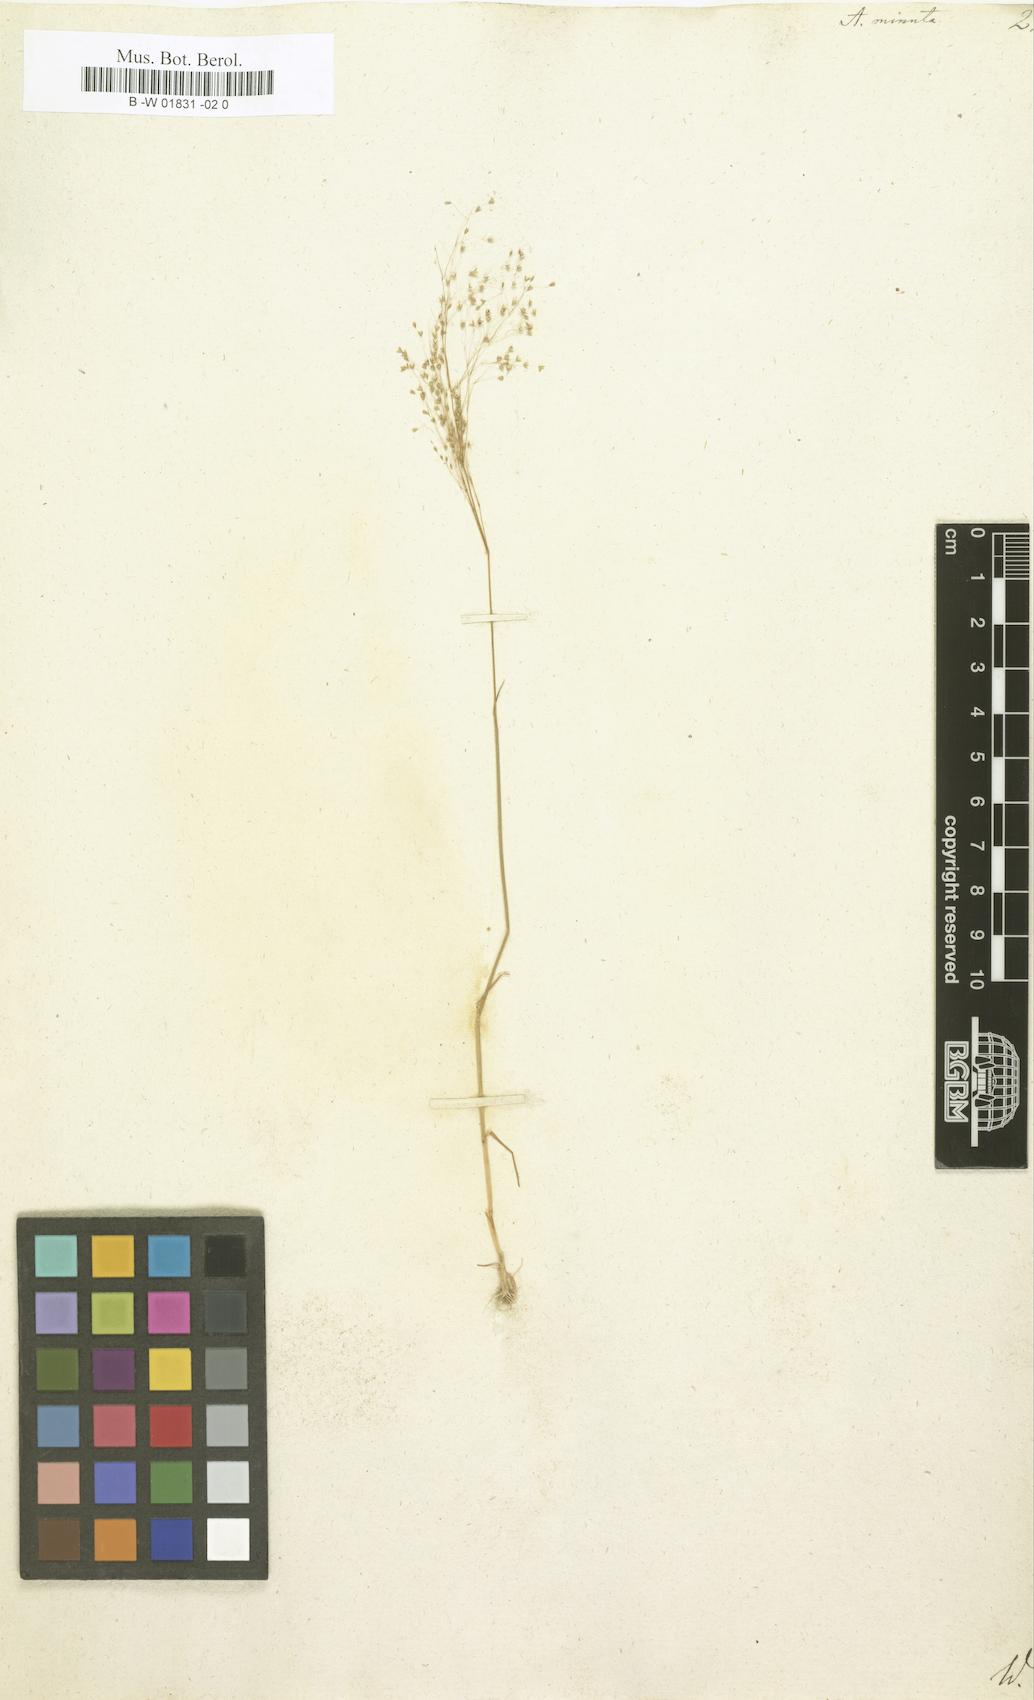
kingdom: Plantae
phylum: Tracheophyta
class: Liliopsida
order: Poales
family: Poaceae
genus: Molineriella
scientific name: Molineriella minuta
